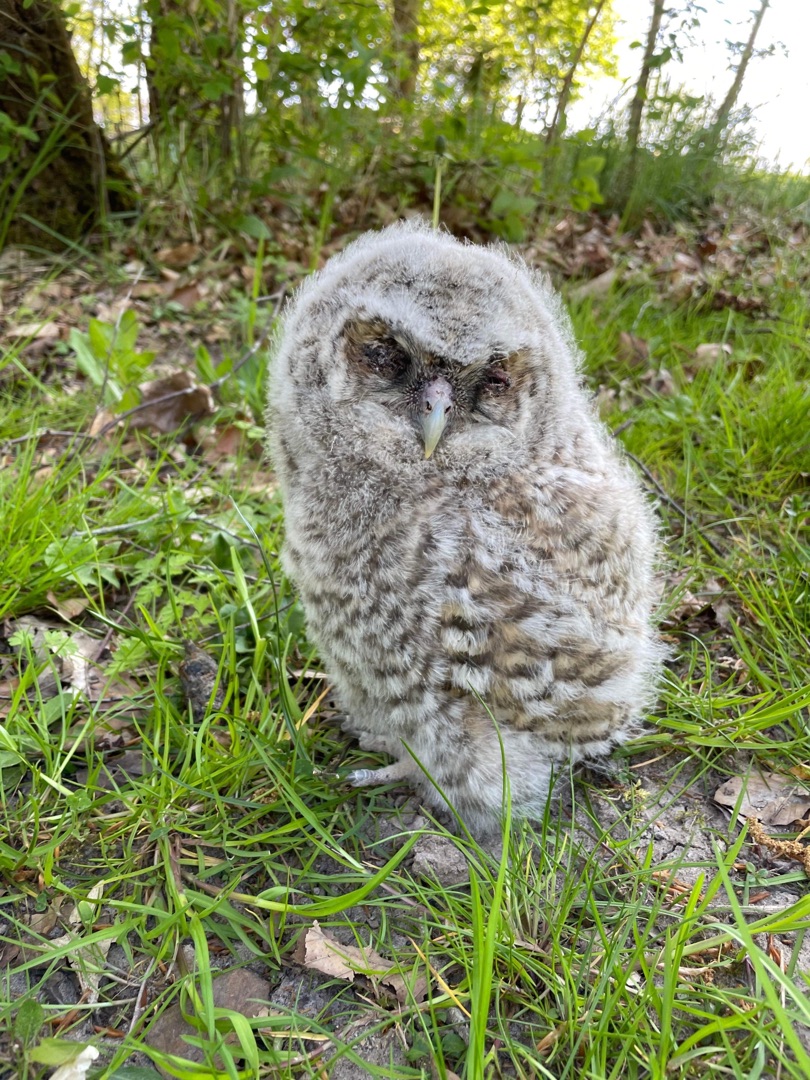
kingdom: Animalia
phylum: Chordata
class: Aves
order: Strigiformes
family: Strigidae
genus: Strix
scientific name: Strix aluco
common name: Natugle
